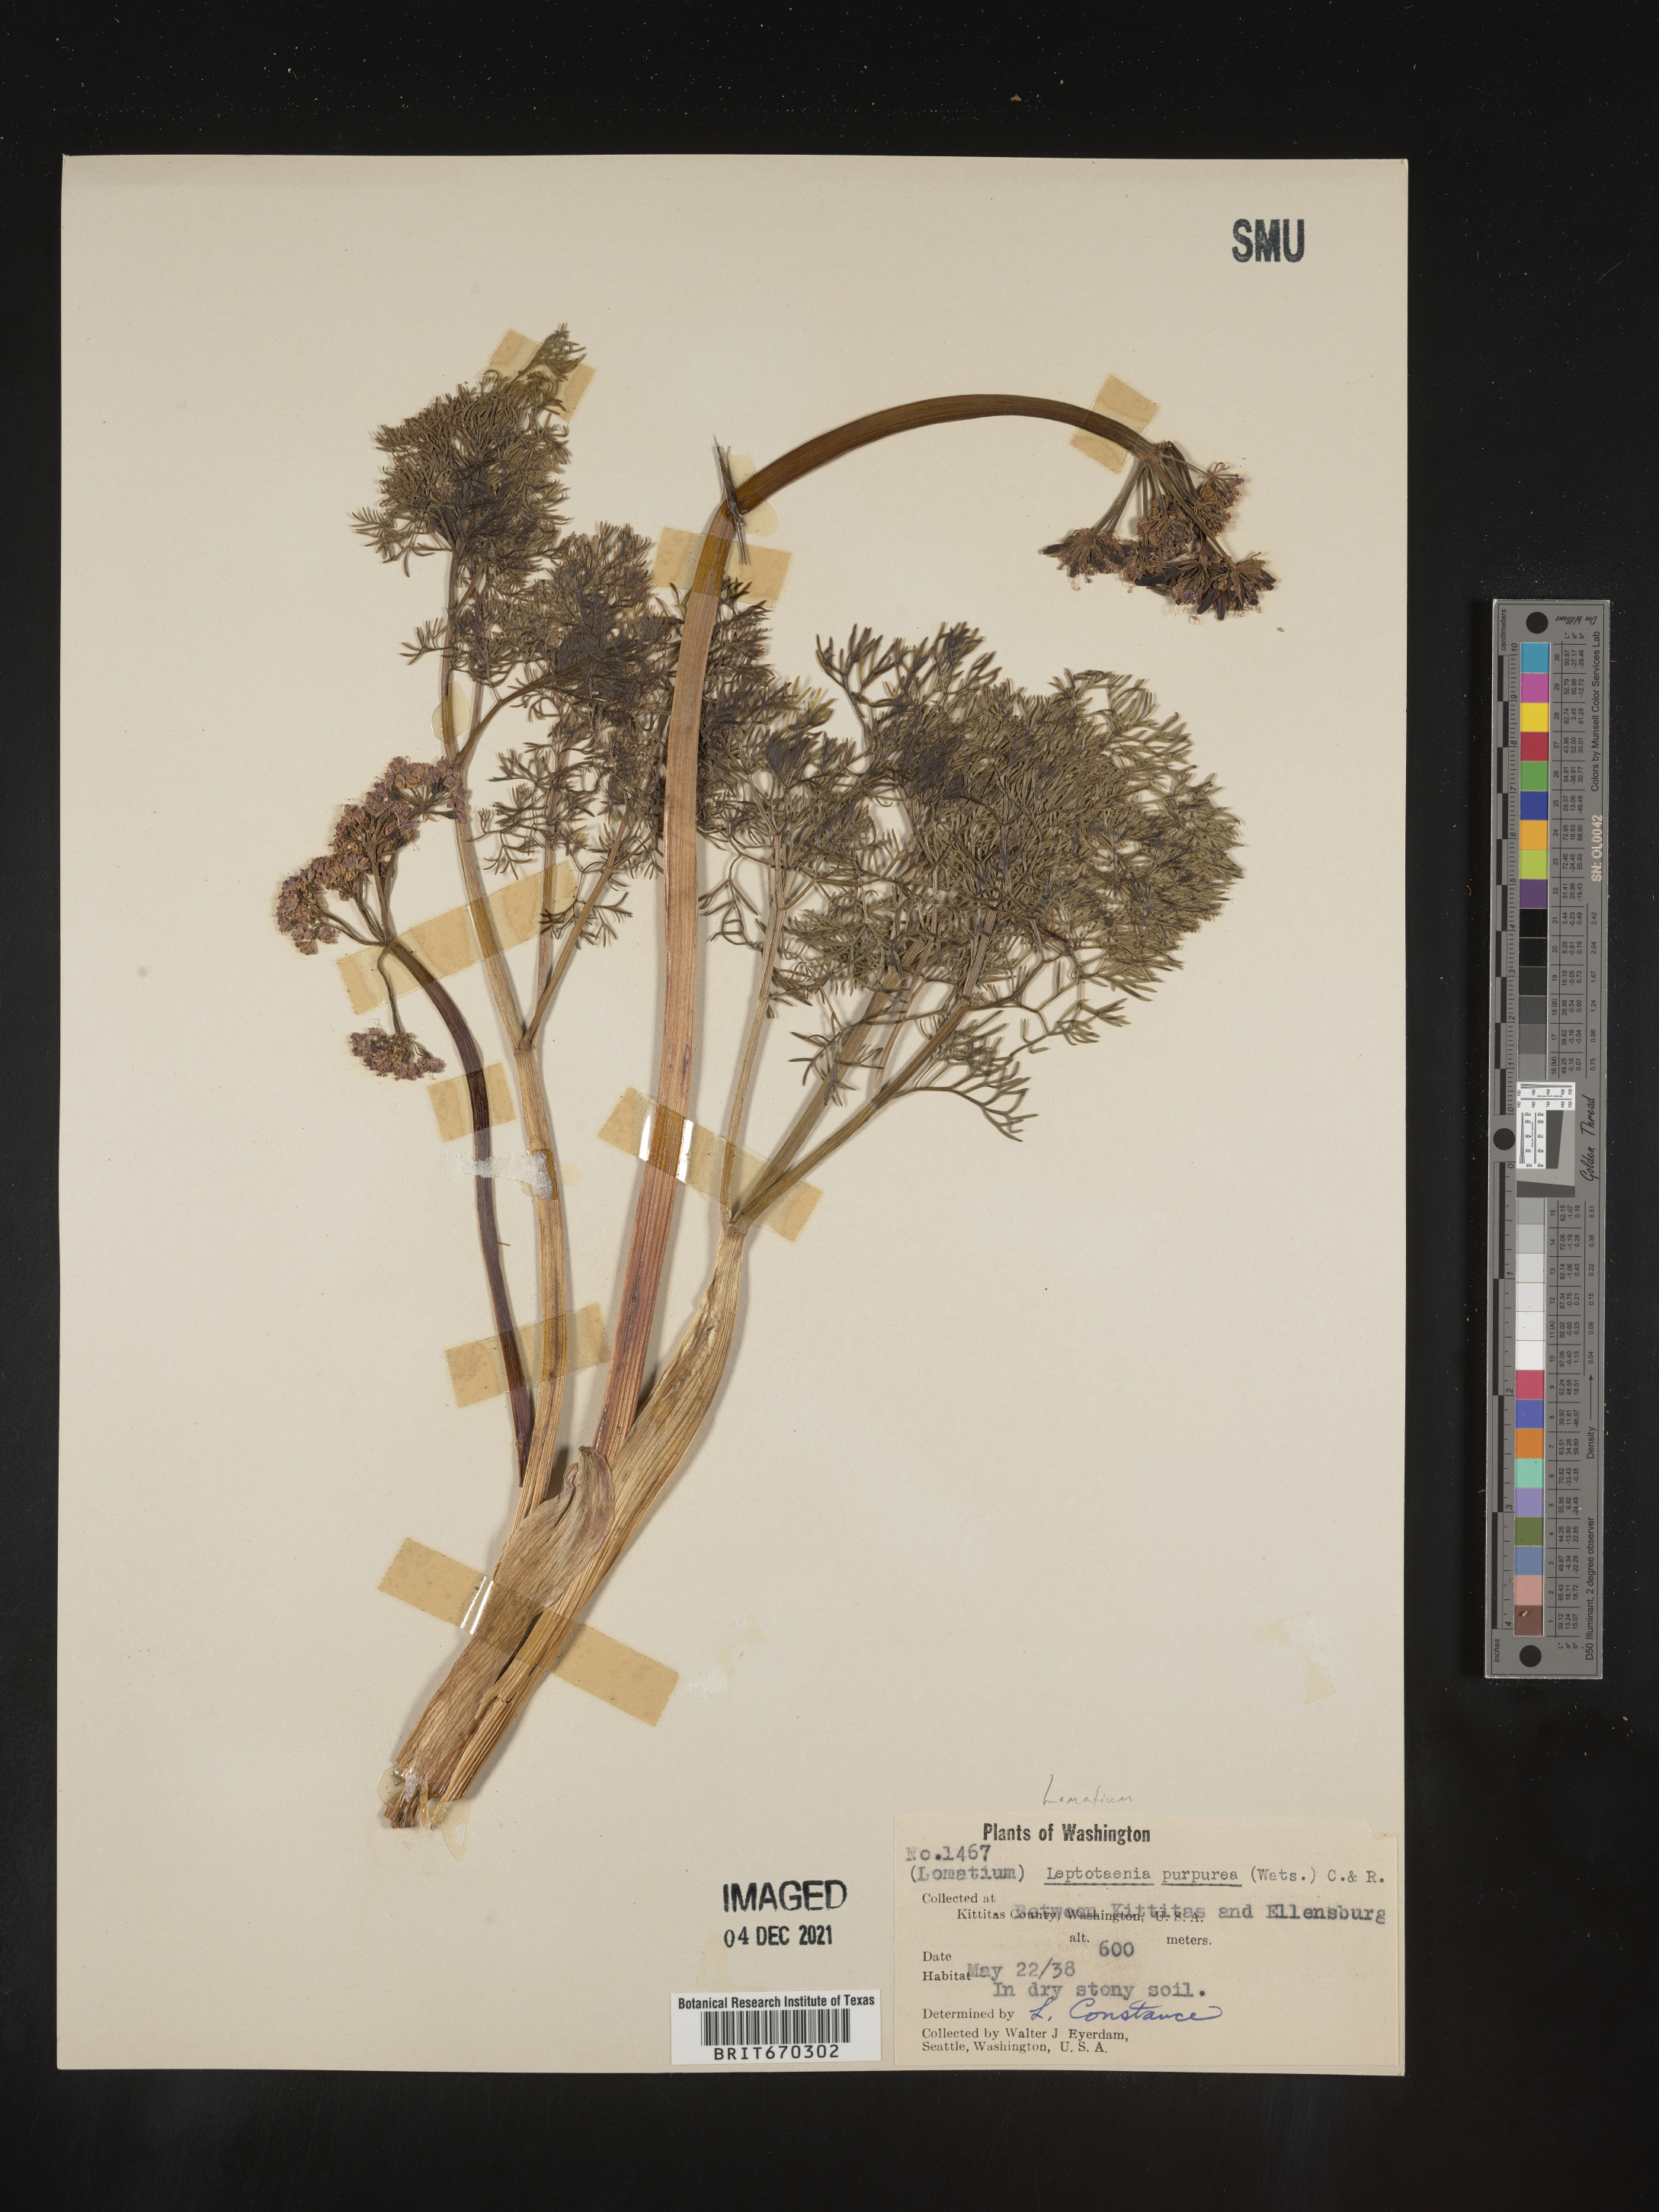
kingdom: Plantae
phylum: Tracheophyta
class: Magnoliopsida
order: Apiales
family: Apiaceae
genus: Lomatium
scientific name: Lomatium columbianum
